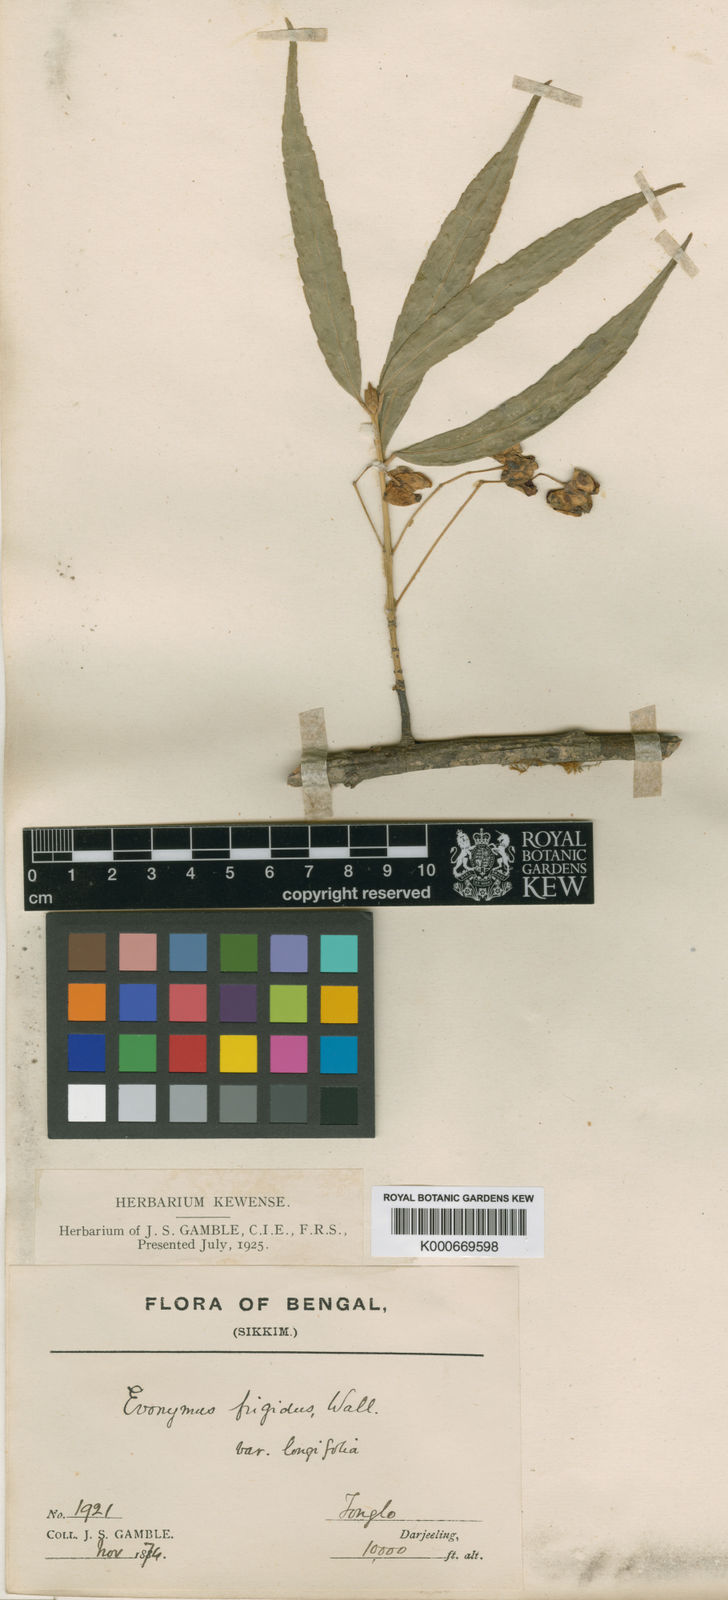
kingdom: Plantae
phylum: Tracheophyta
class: Magnoliopsida
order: Celastrales
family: Celastraceae
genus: Euonymus
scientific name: Euonymus frigidus
